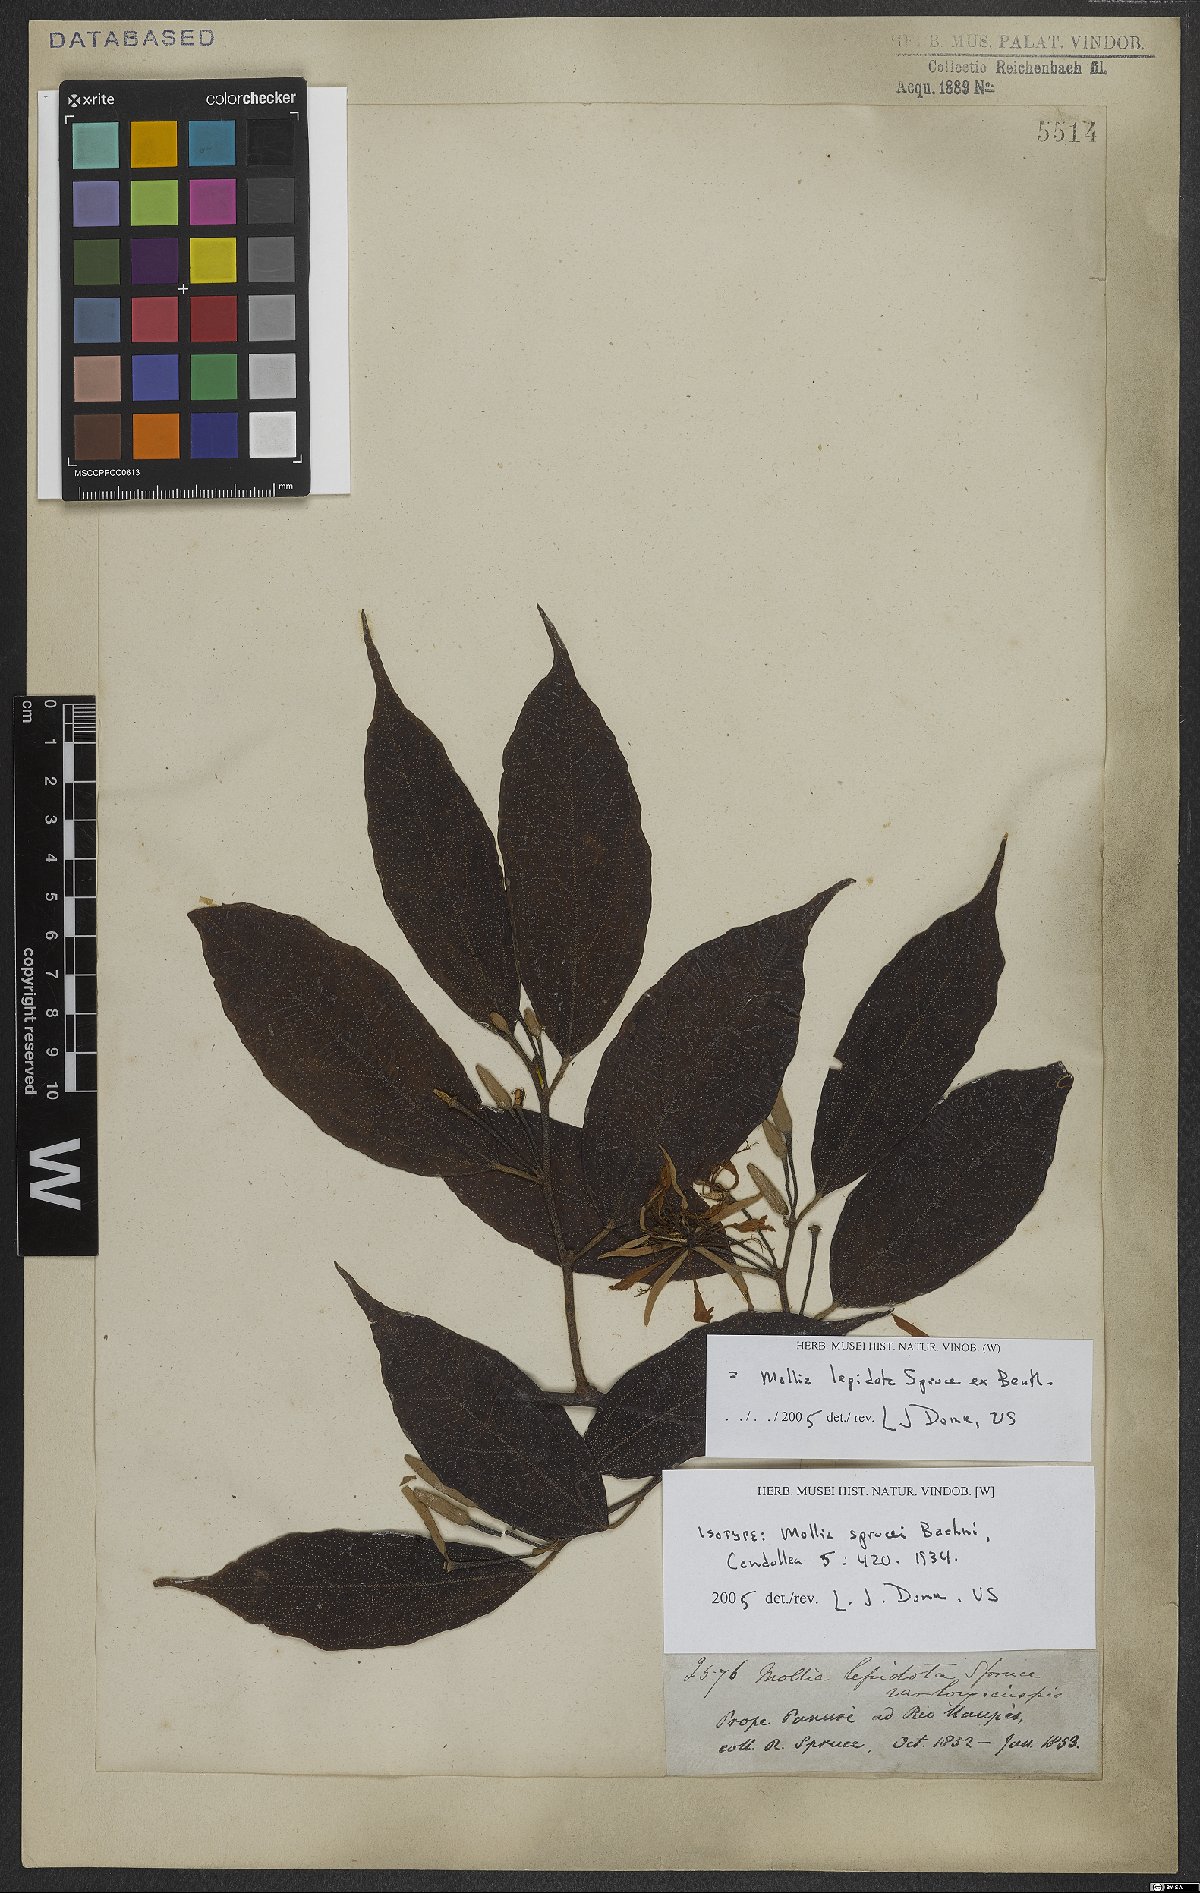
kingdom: Plantae
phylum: Tracheophyta
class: Magnoliopsida
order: Malvales
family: Malvaceae
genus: Mollia
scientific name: Mollia lepidota
